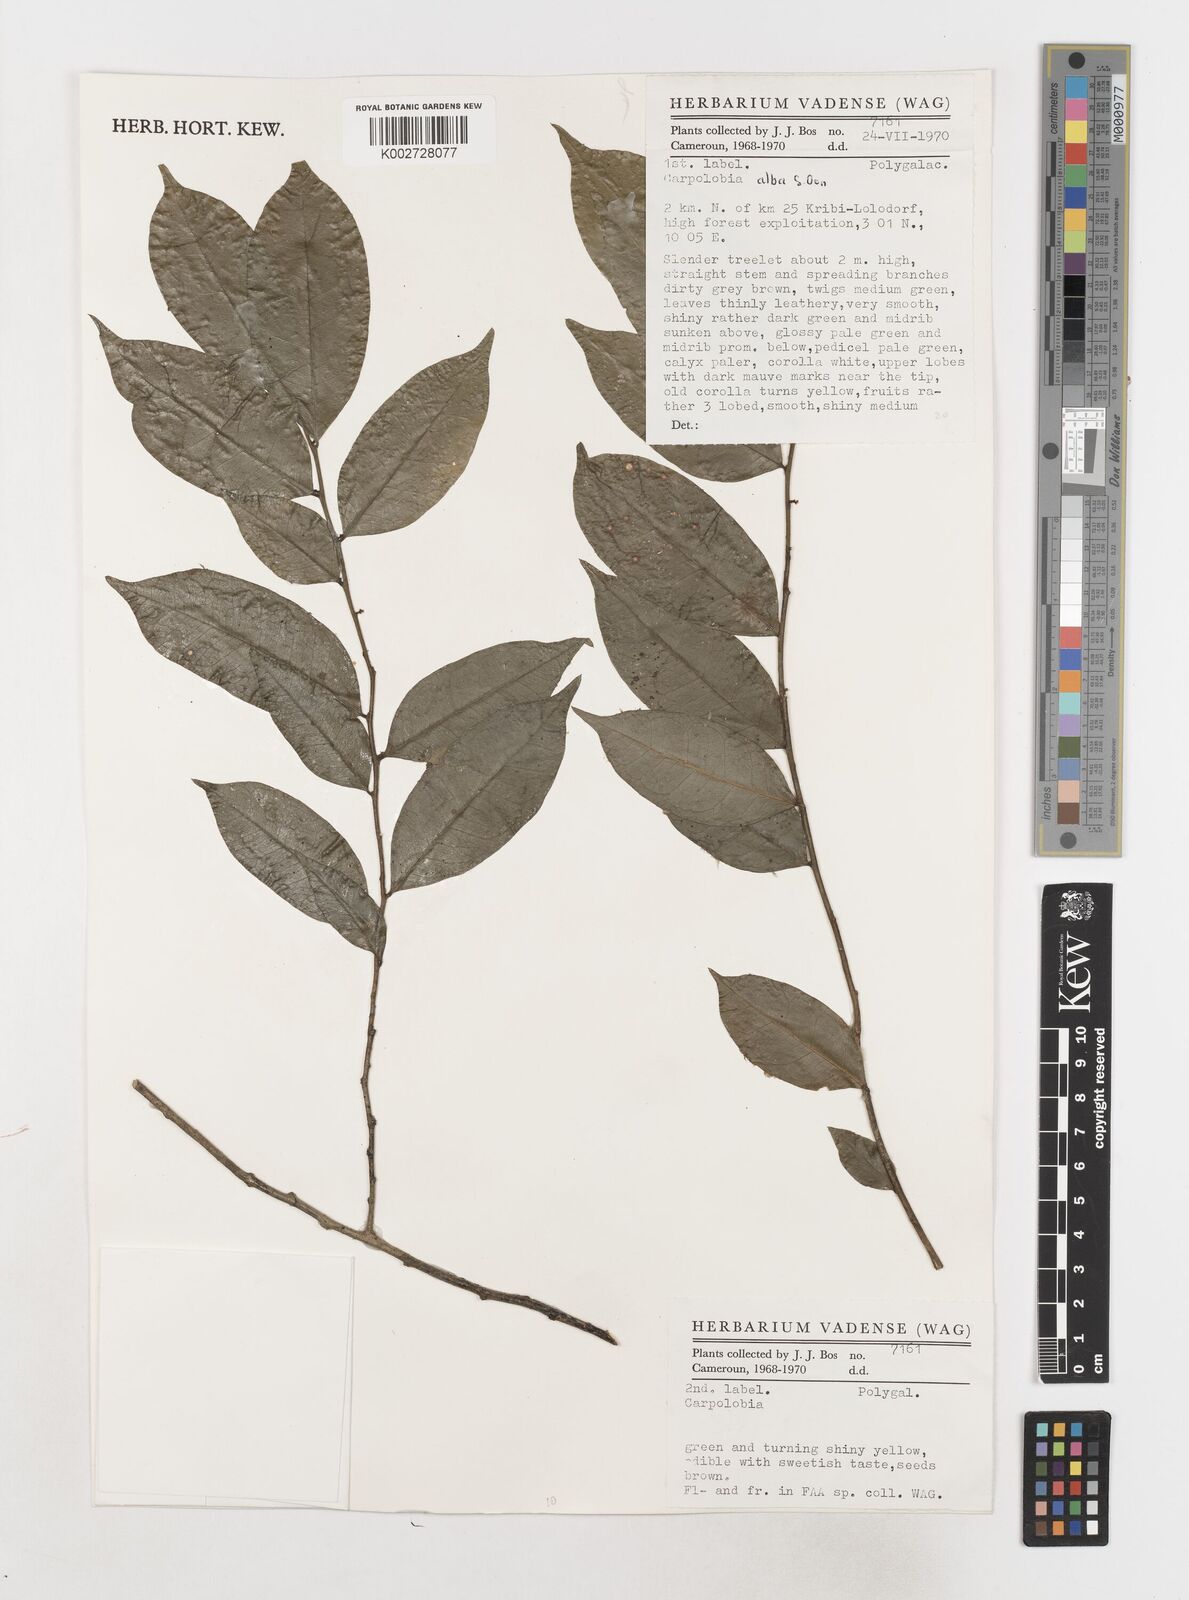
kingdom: Plantae
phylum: Tracheophyta
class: Magnoliopsida
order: Fabales
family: Polygalaceae
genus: Carpolobia
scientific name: Carpolobia alba
